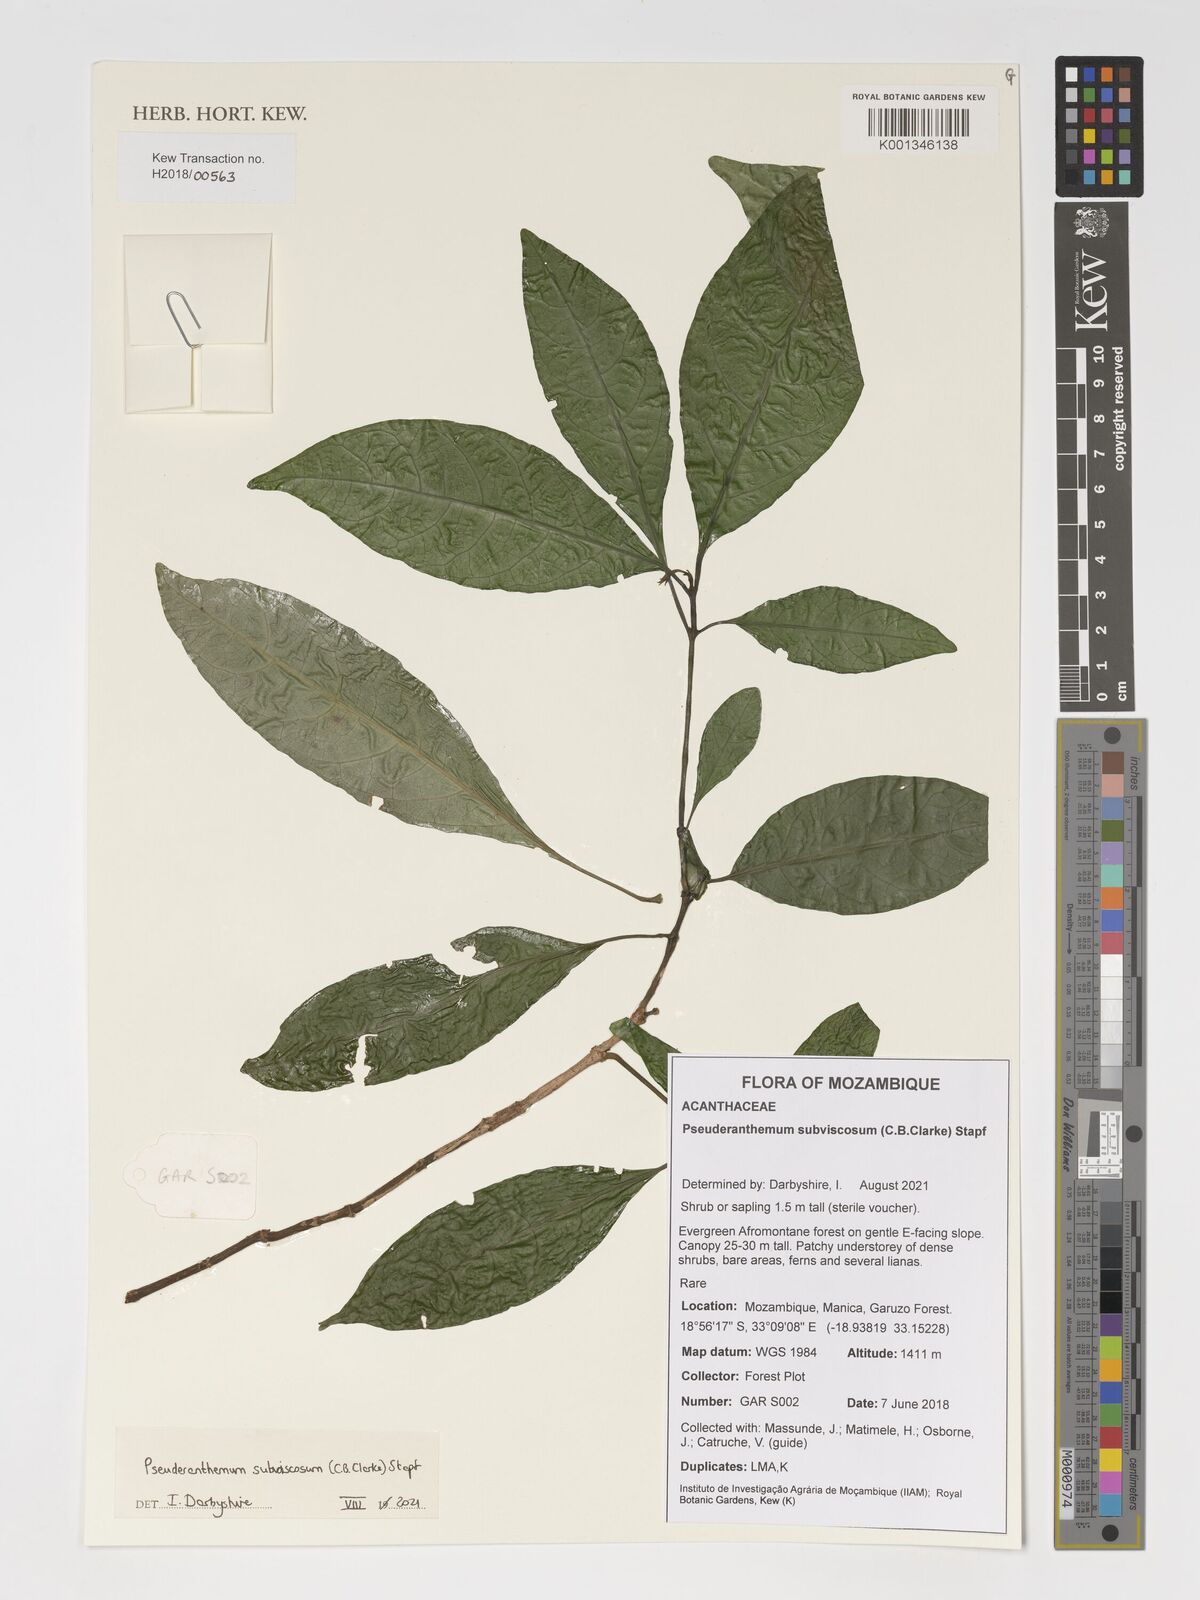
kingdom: Plantae
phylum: Tracheophyta
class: Magnoliopsida
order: Lamiales
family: Acanthaceae
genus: Pseuderanthemum
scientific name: Pseuderanthemum subviscosum
